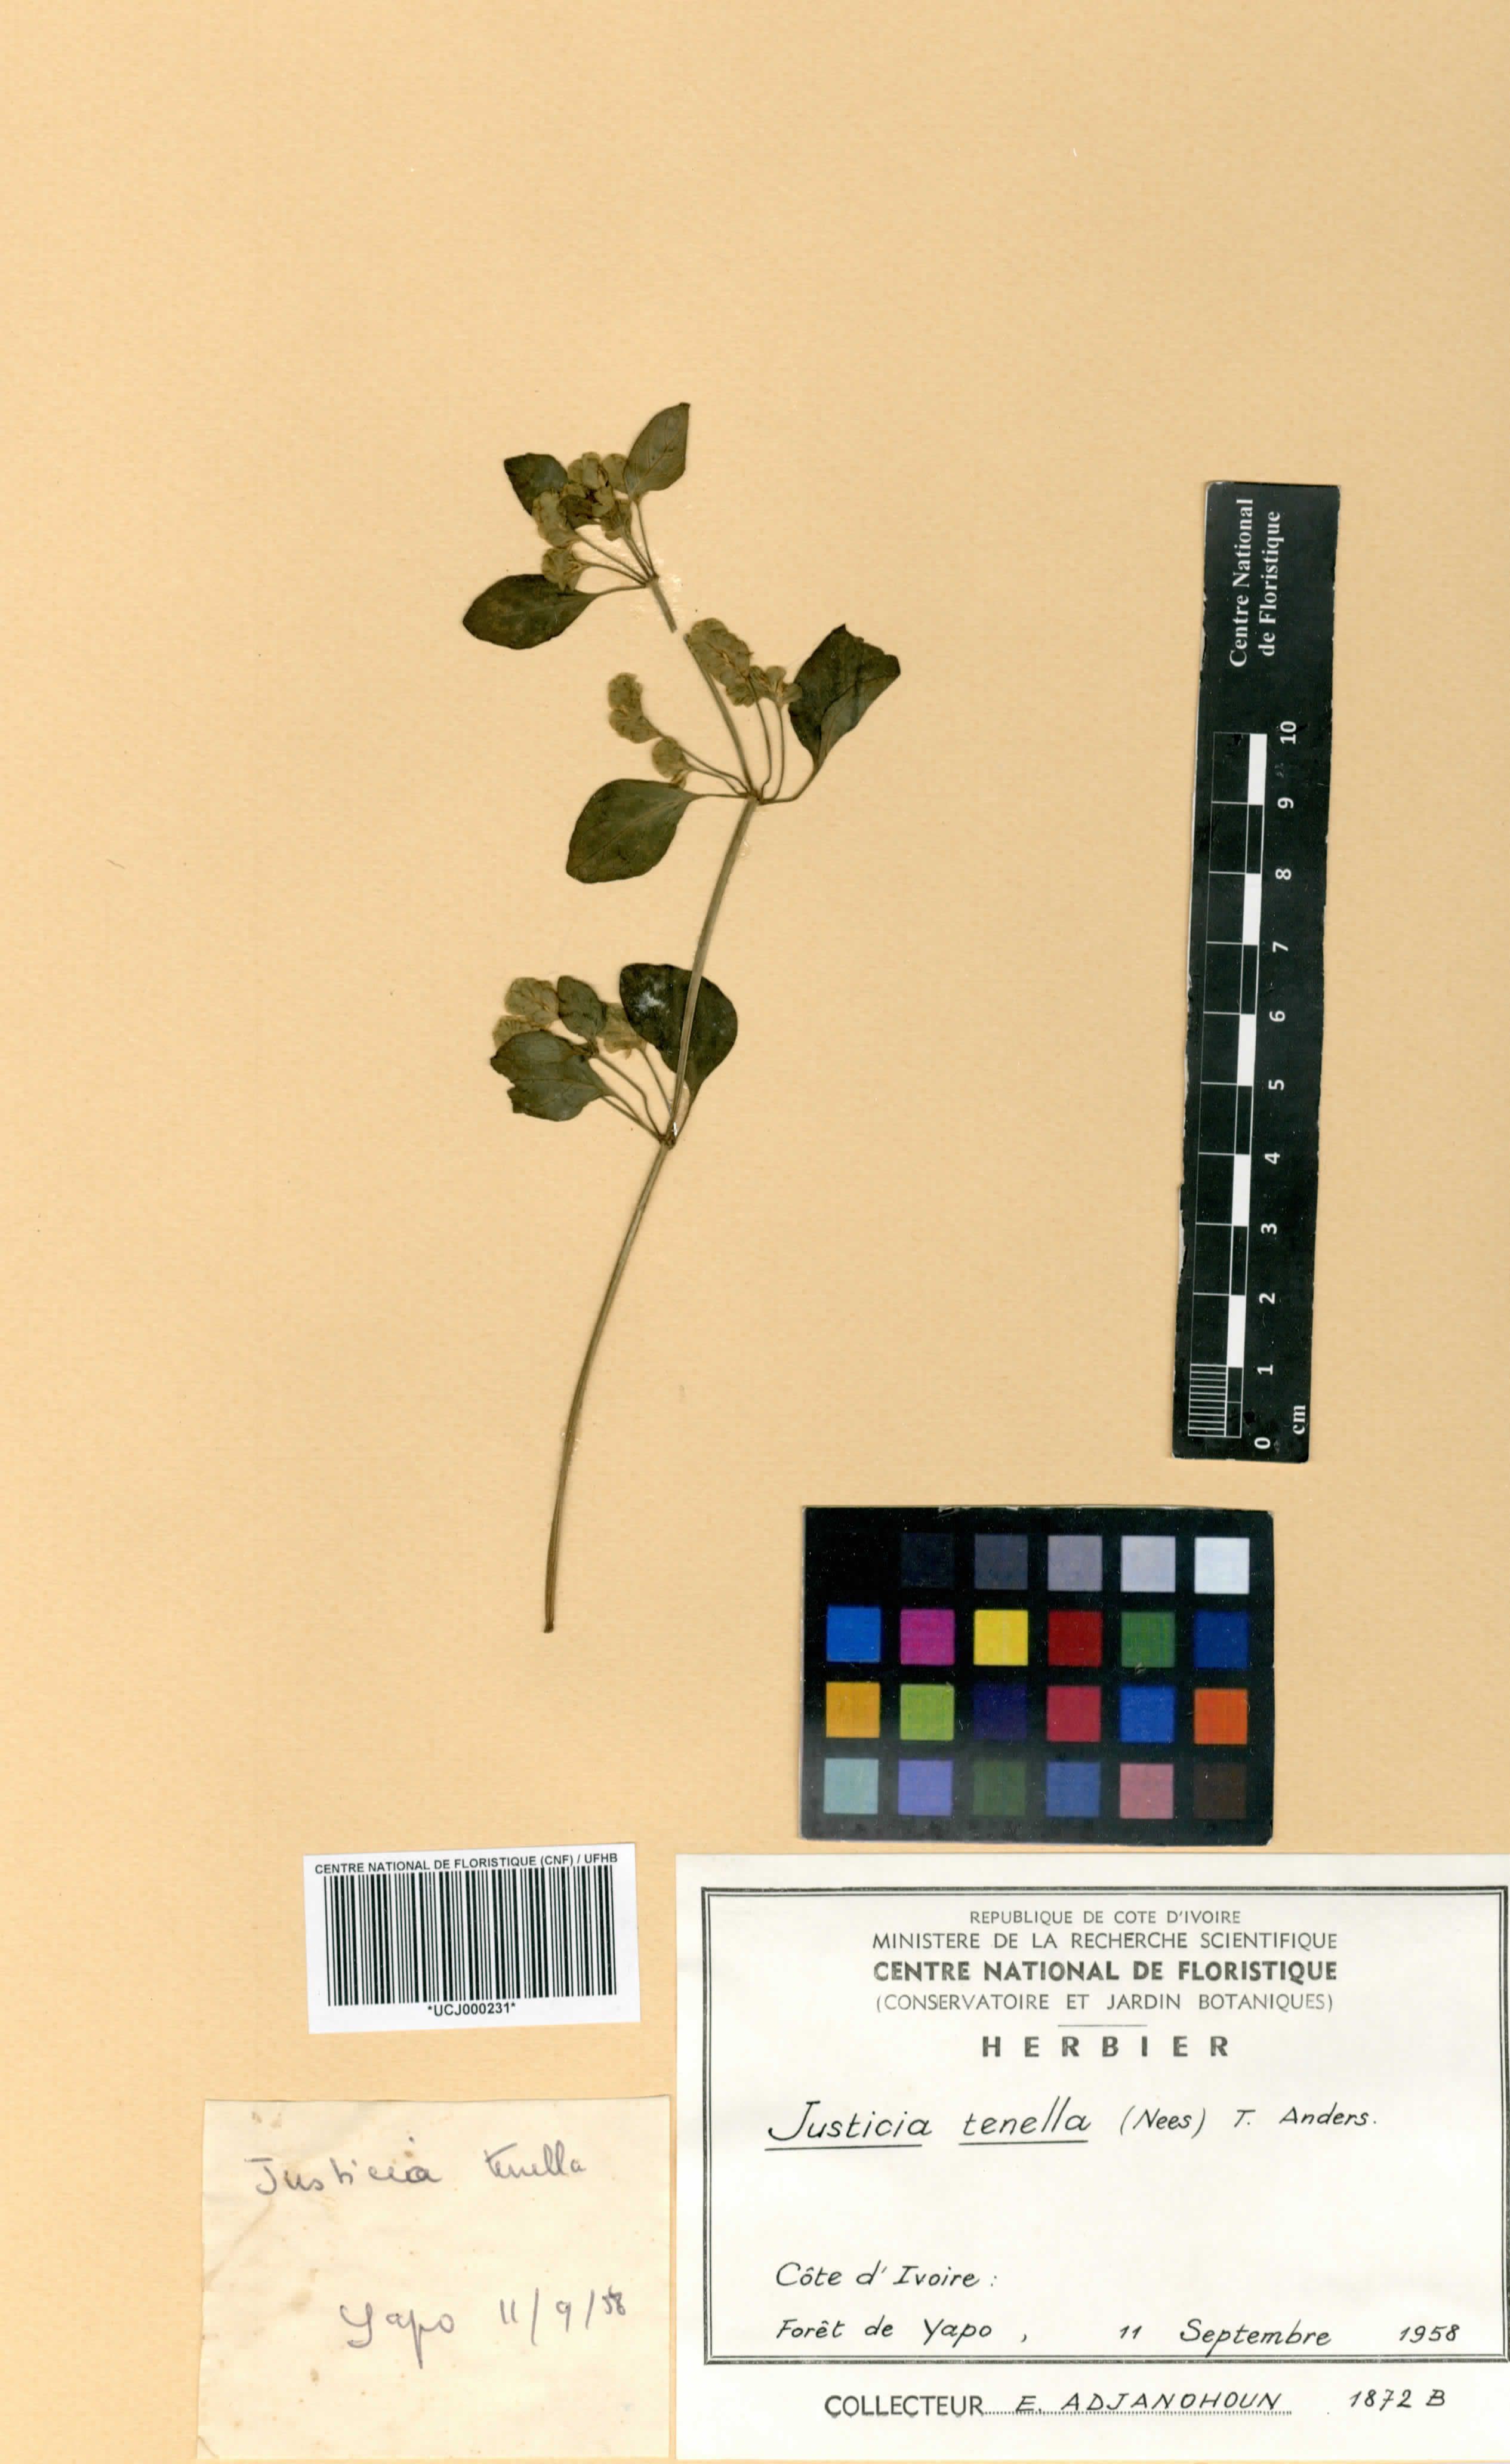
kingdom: Plantae
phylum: Tracheophyta
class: Magnoliopsida
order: Lamiales
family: Acanthaceae
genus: Anisostachya
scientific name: Anisostachya tenella
